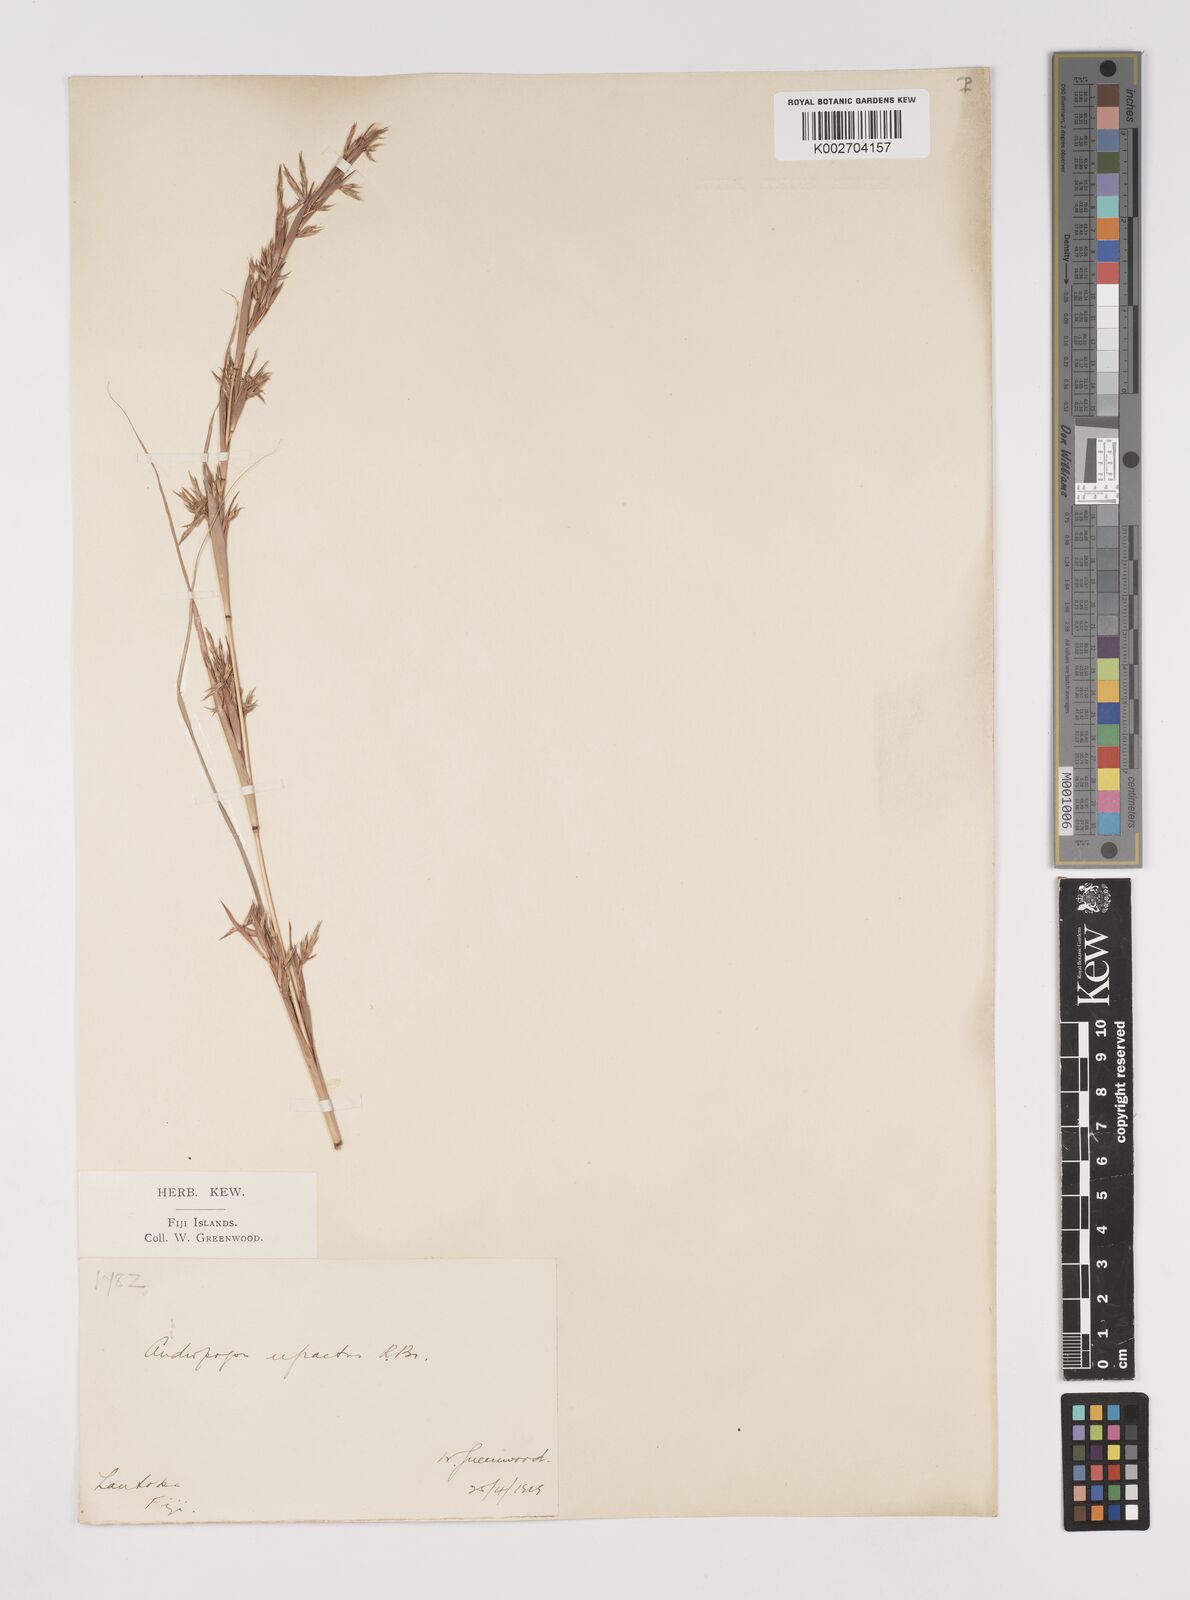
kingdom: Plantae
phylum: Tracheophyta
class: Liliopsida
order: Poales
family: Poaceae
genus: Cymbopogon
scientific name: Cymbopogon refractus
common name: Barbwire grass
